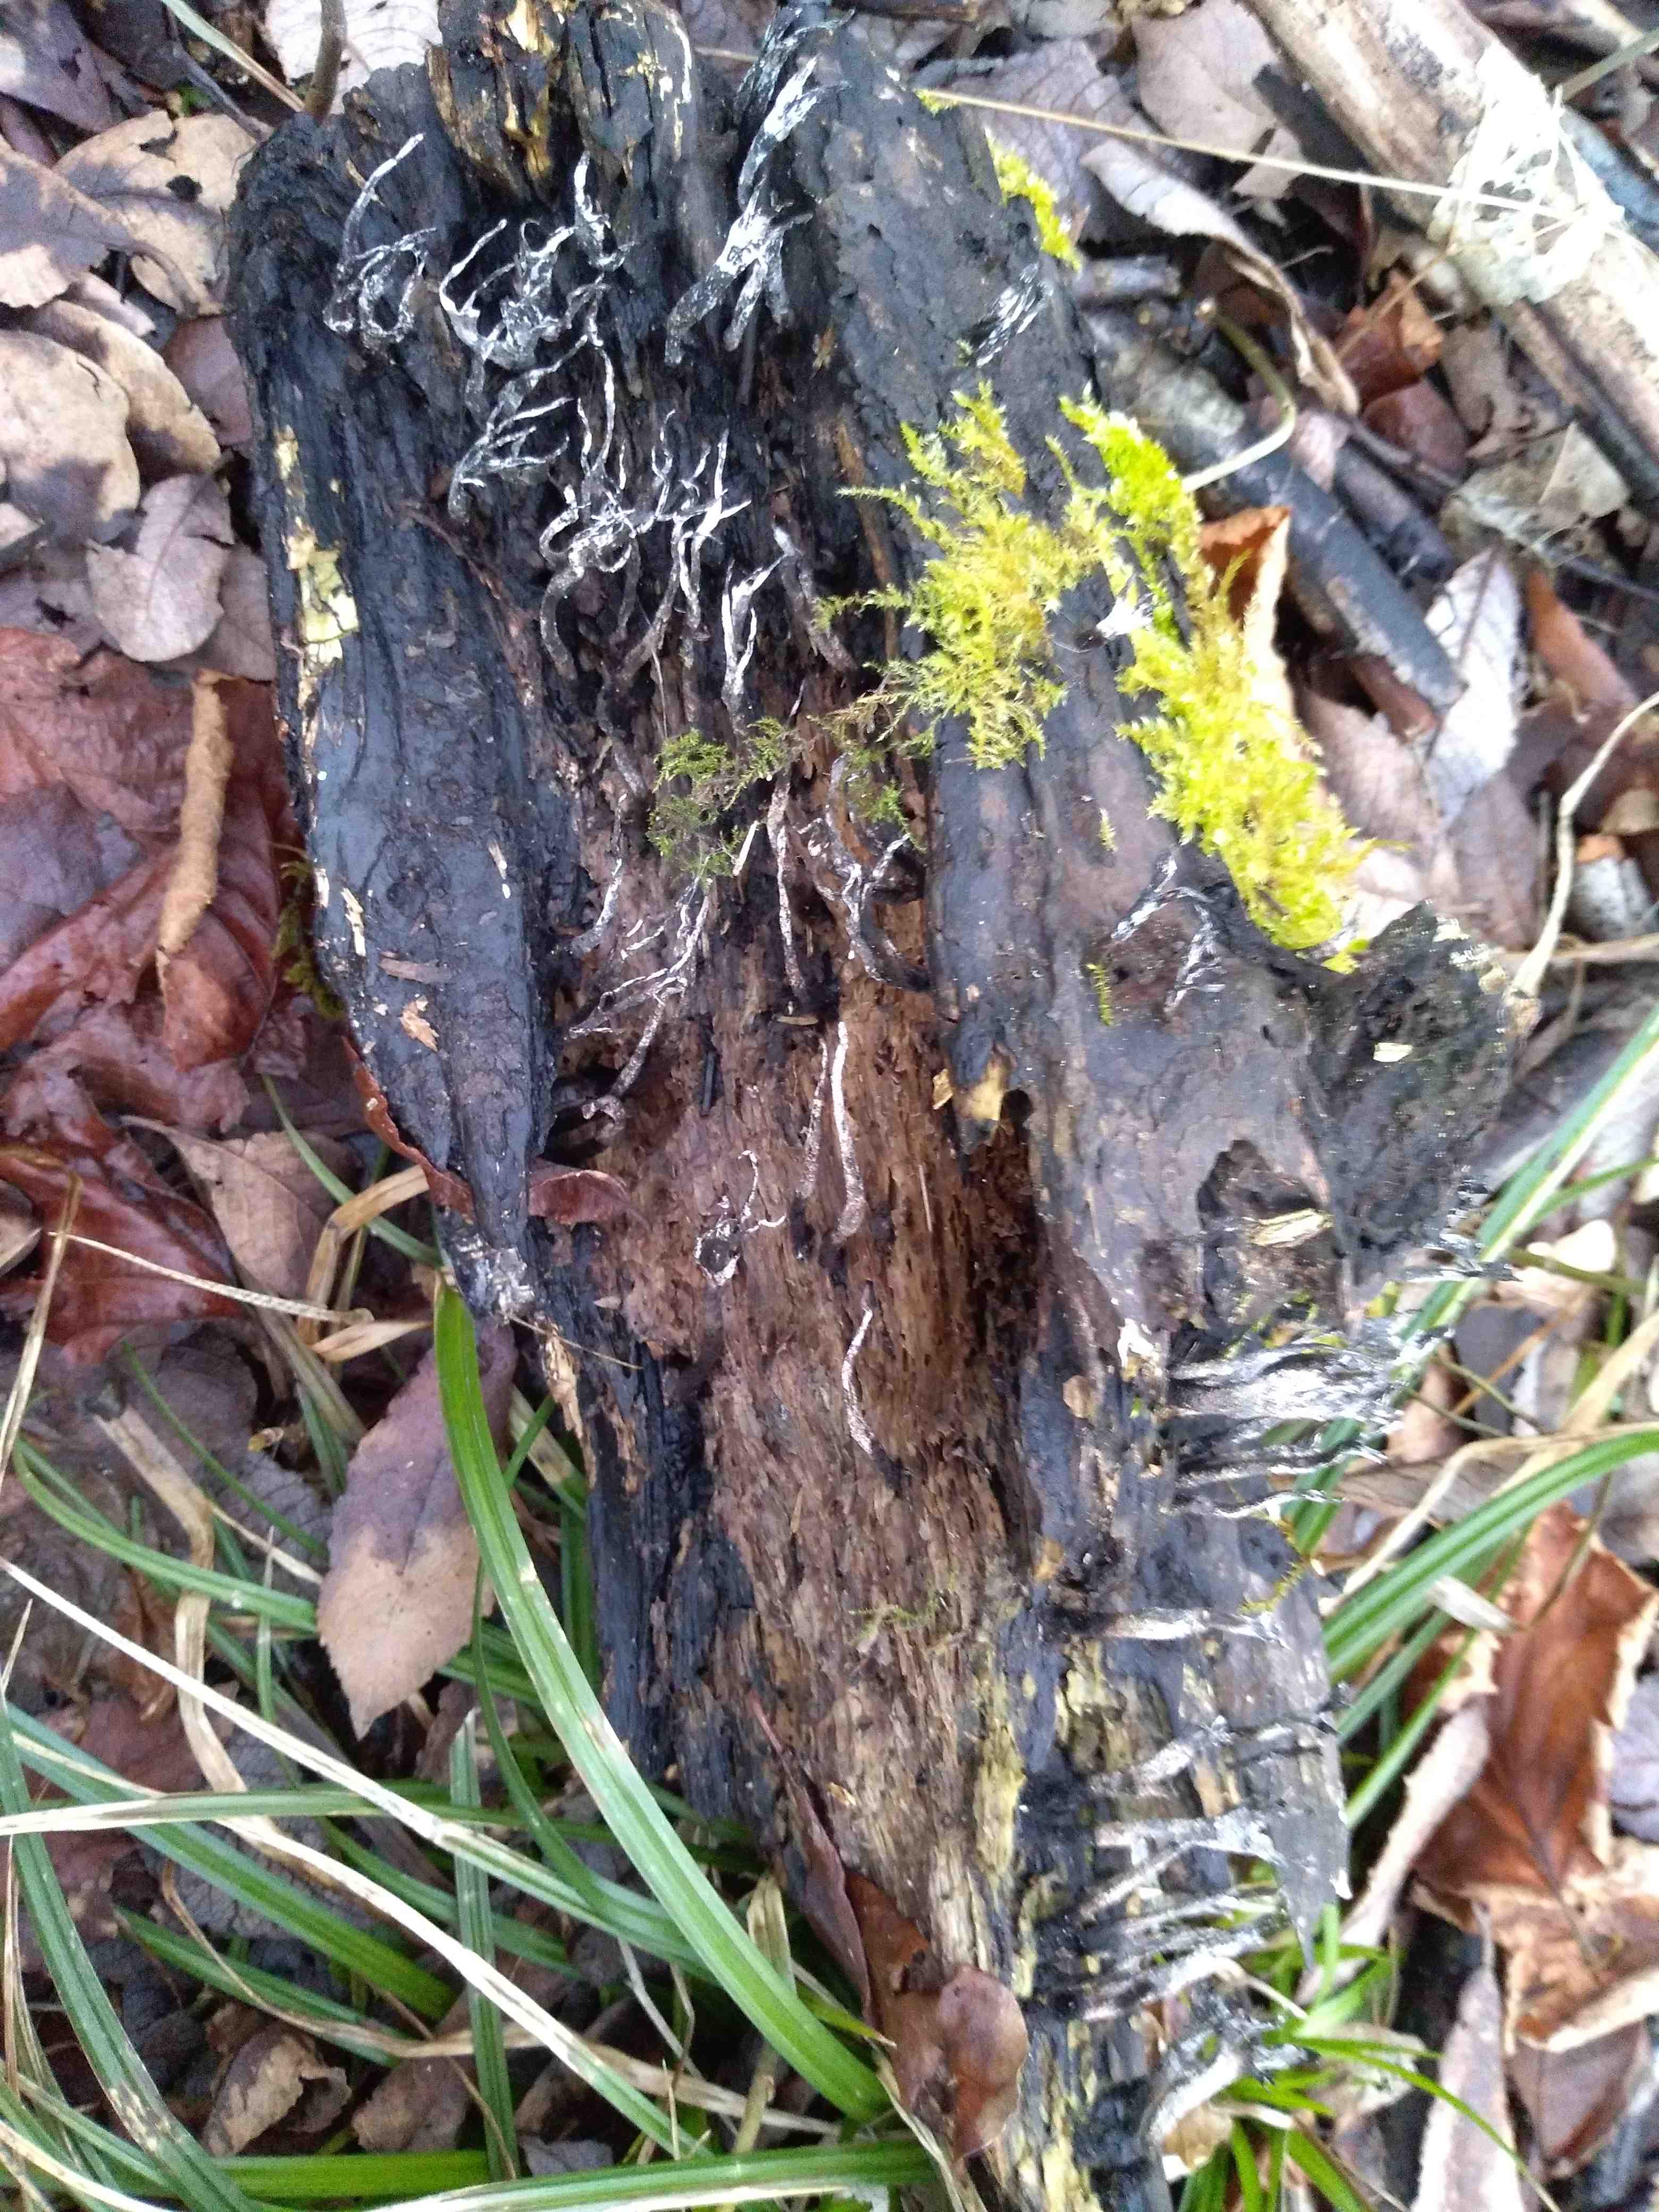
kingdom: Fungi
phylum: Ascomycota
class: Sordariomycetes
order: Xylariales
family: Xylariaceae
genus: Xylaria
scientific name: Xylaria hypoxylon
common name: grenet stødsvamp
